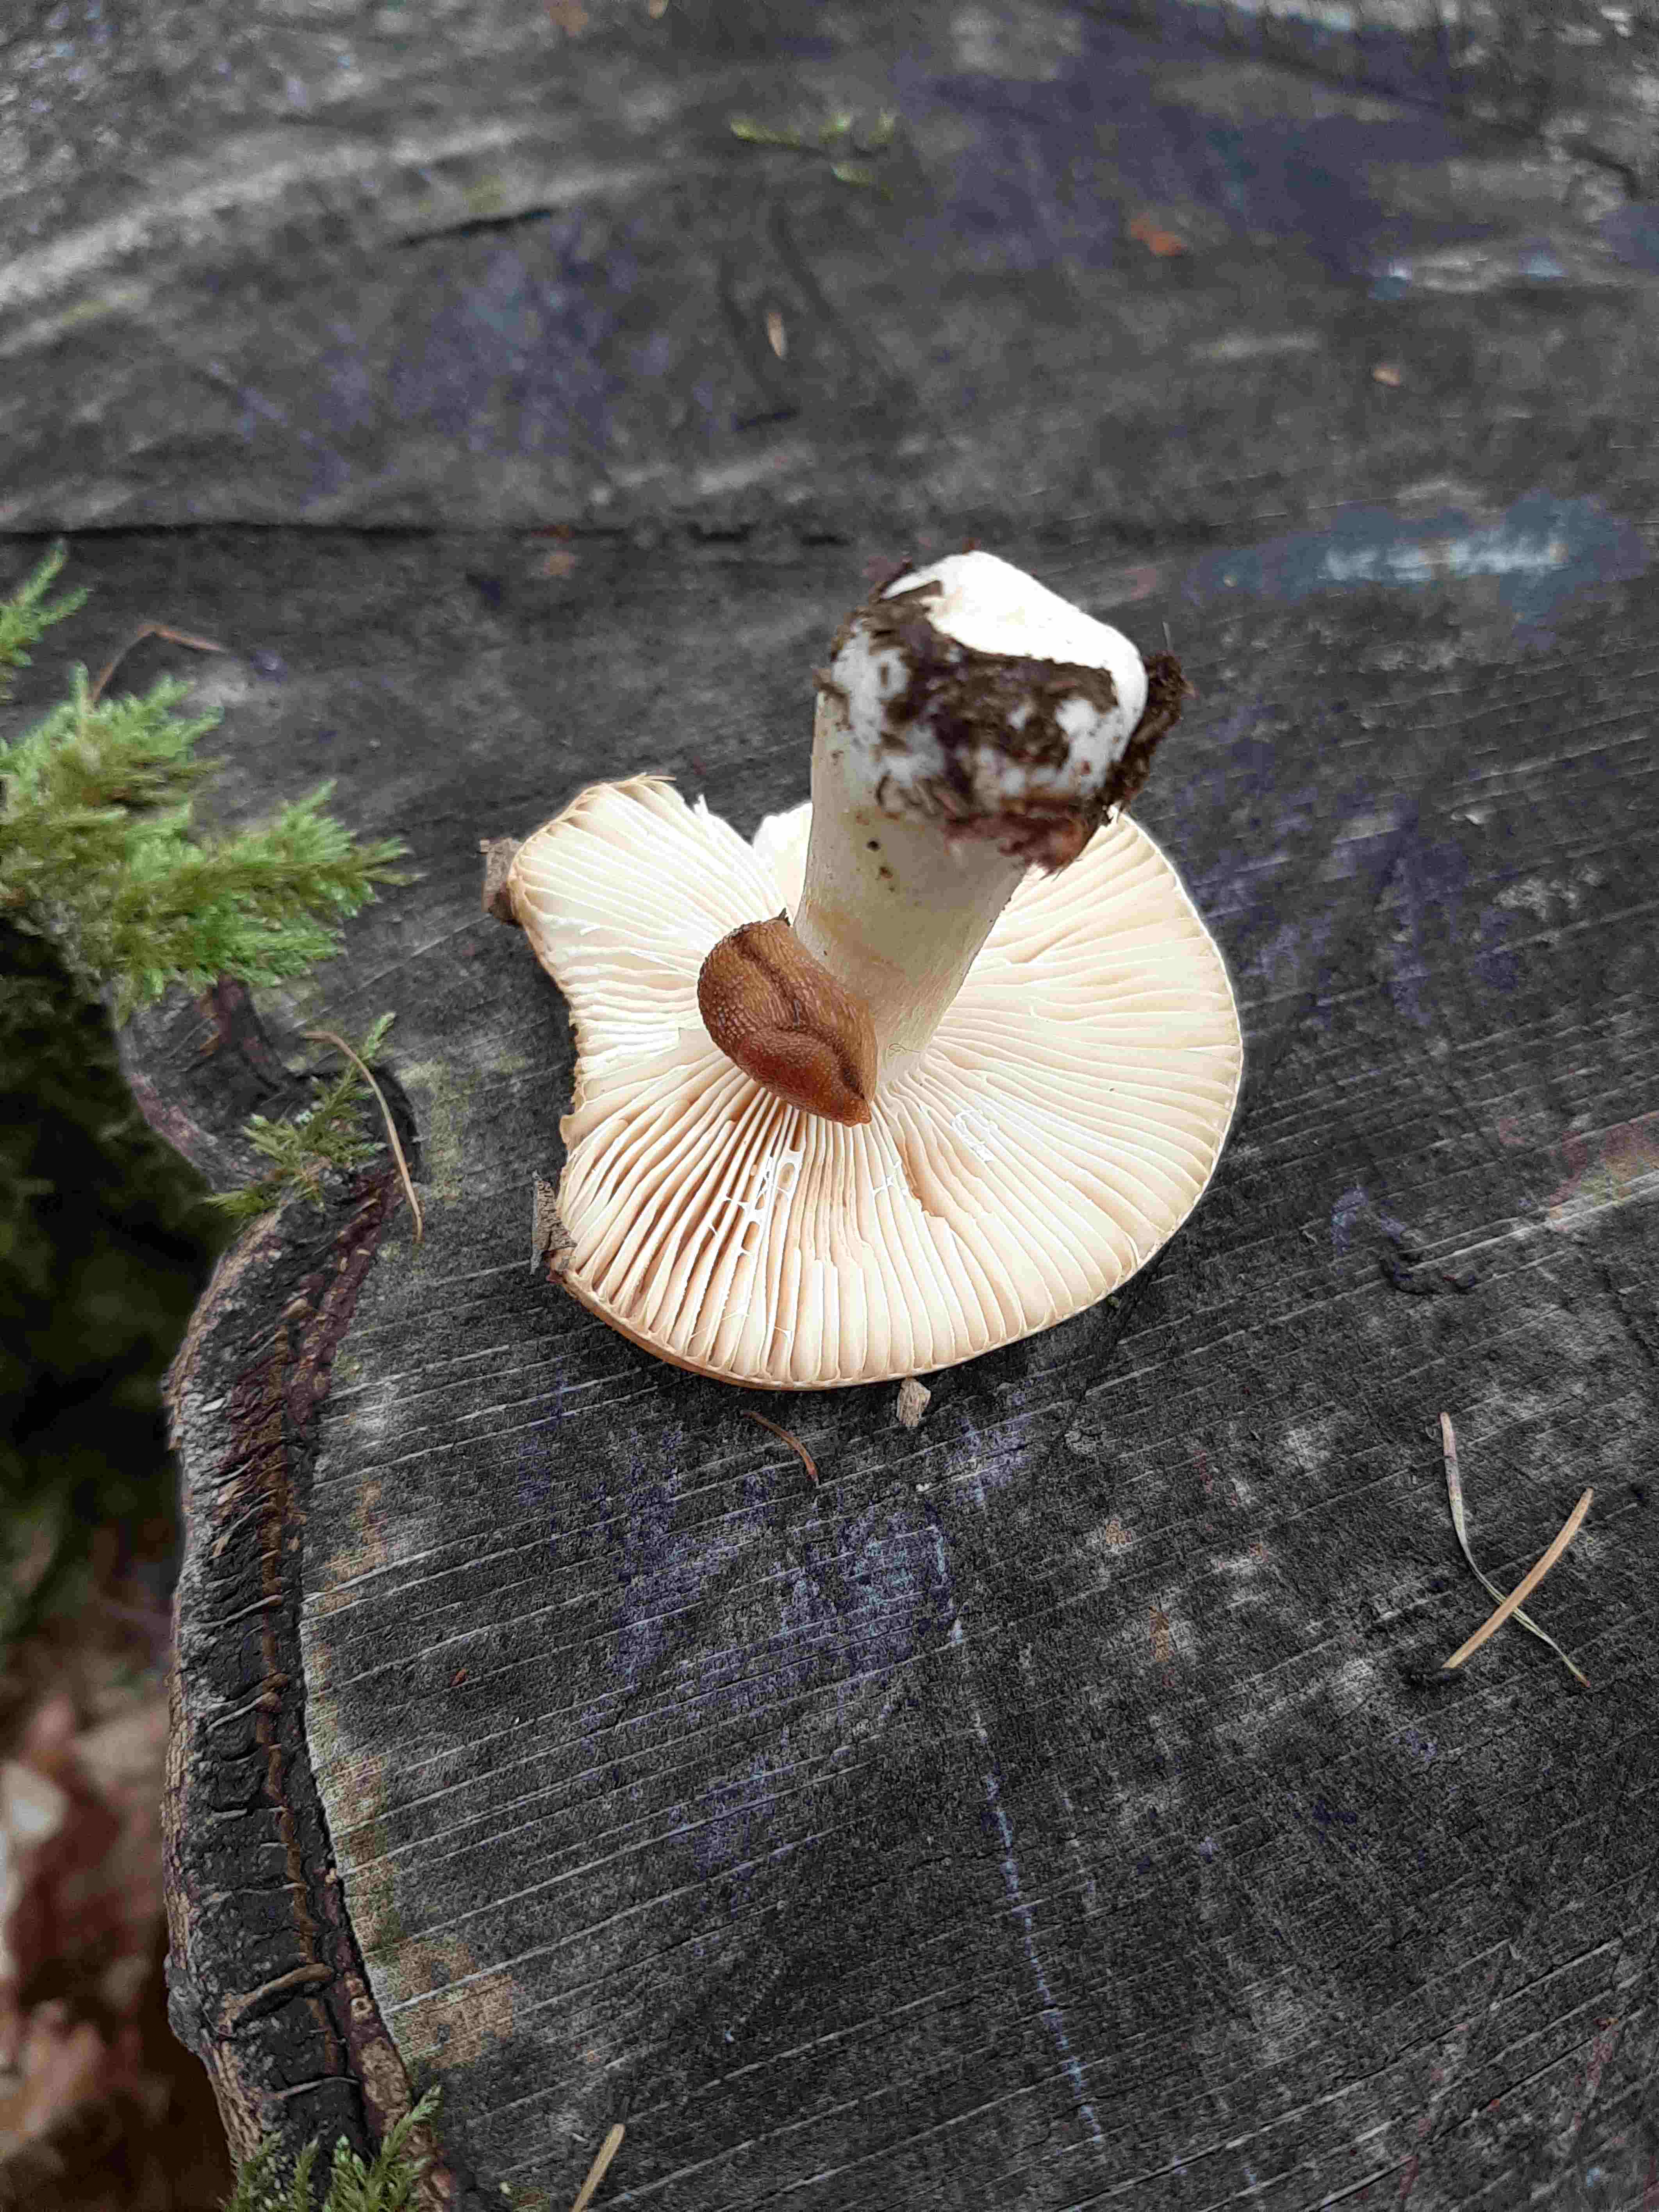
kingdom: Fungi
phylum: Basidiomycota
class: Agaricomycetes
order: Russulales
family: Russulaceae
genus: Russula
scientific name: Russula fellea
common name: galde-skørhat
